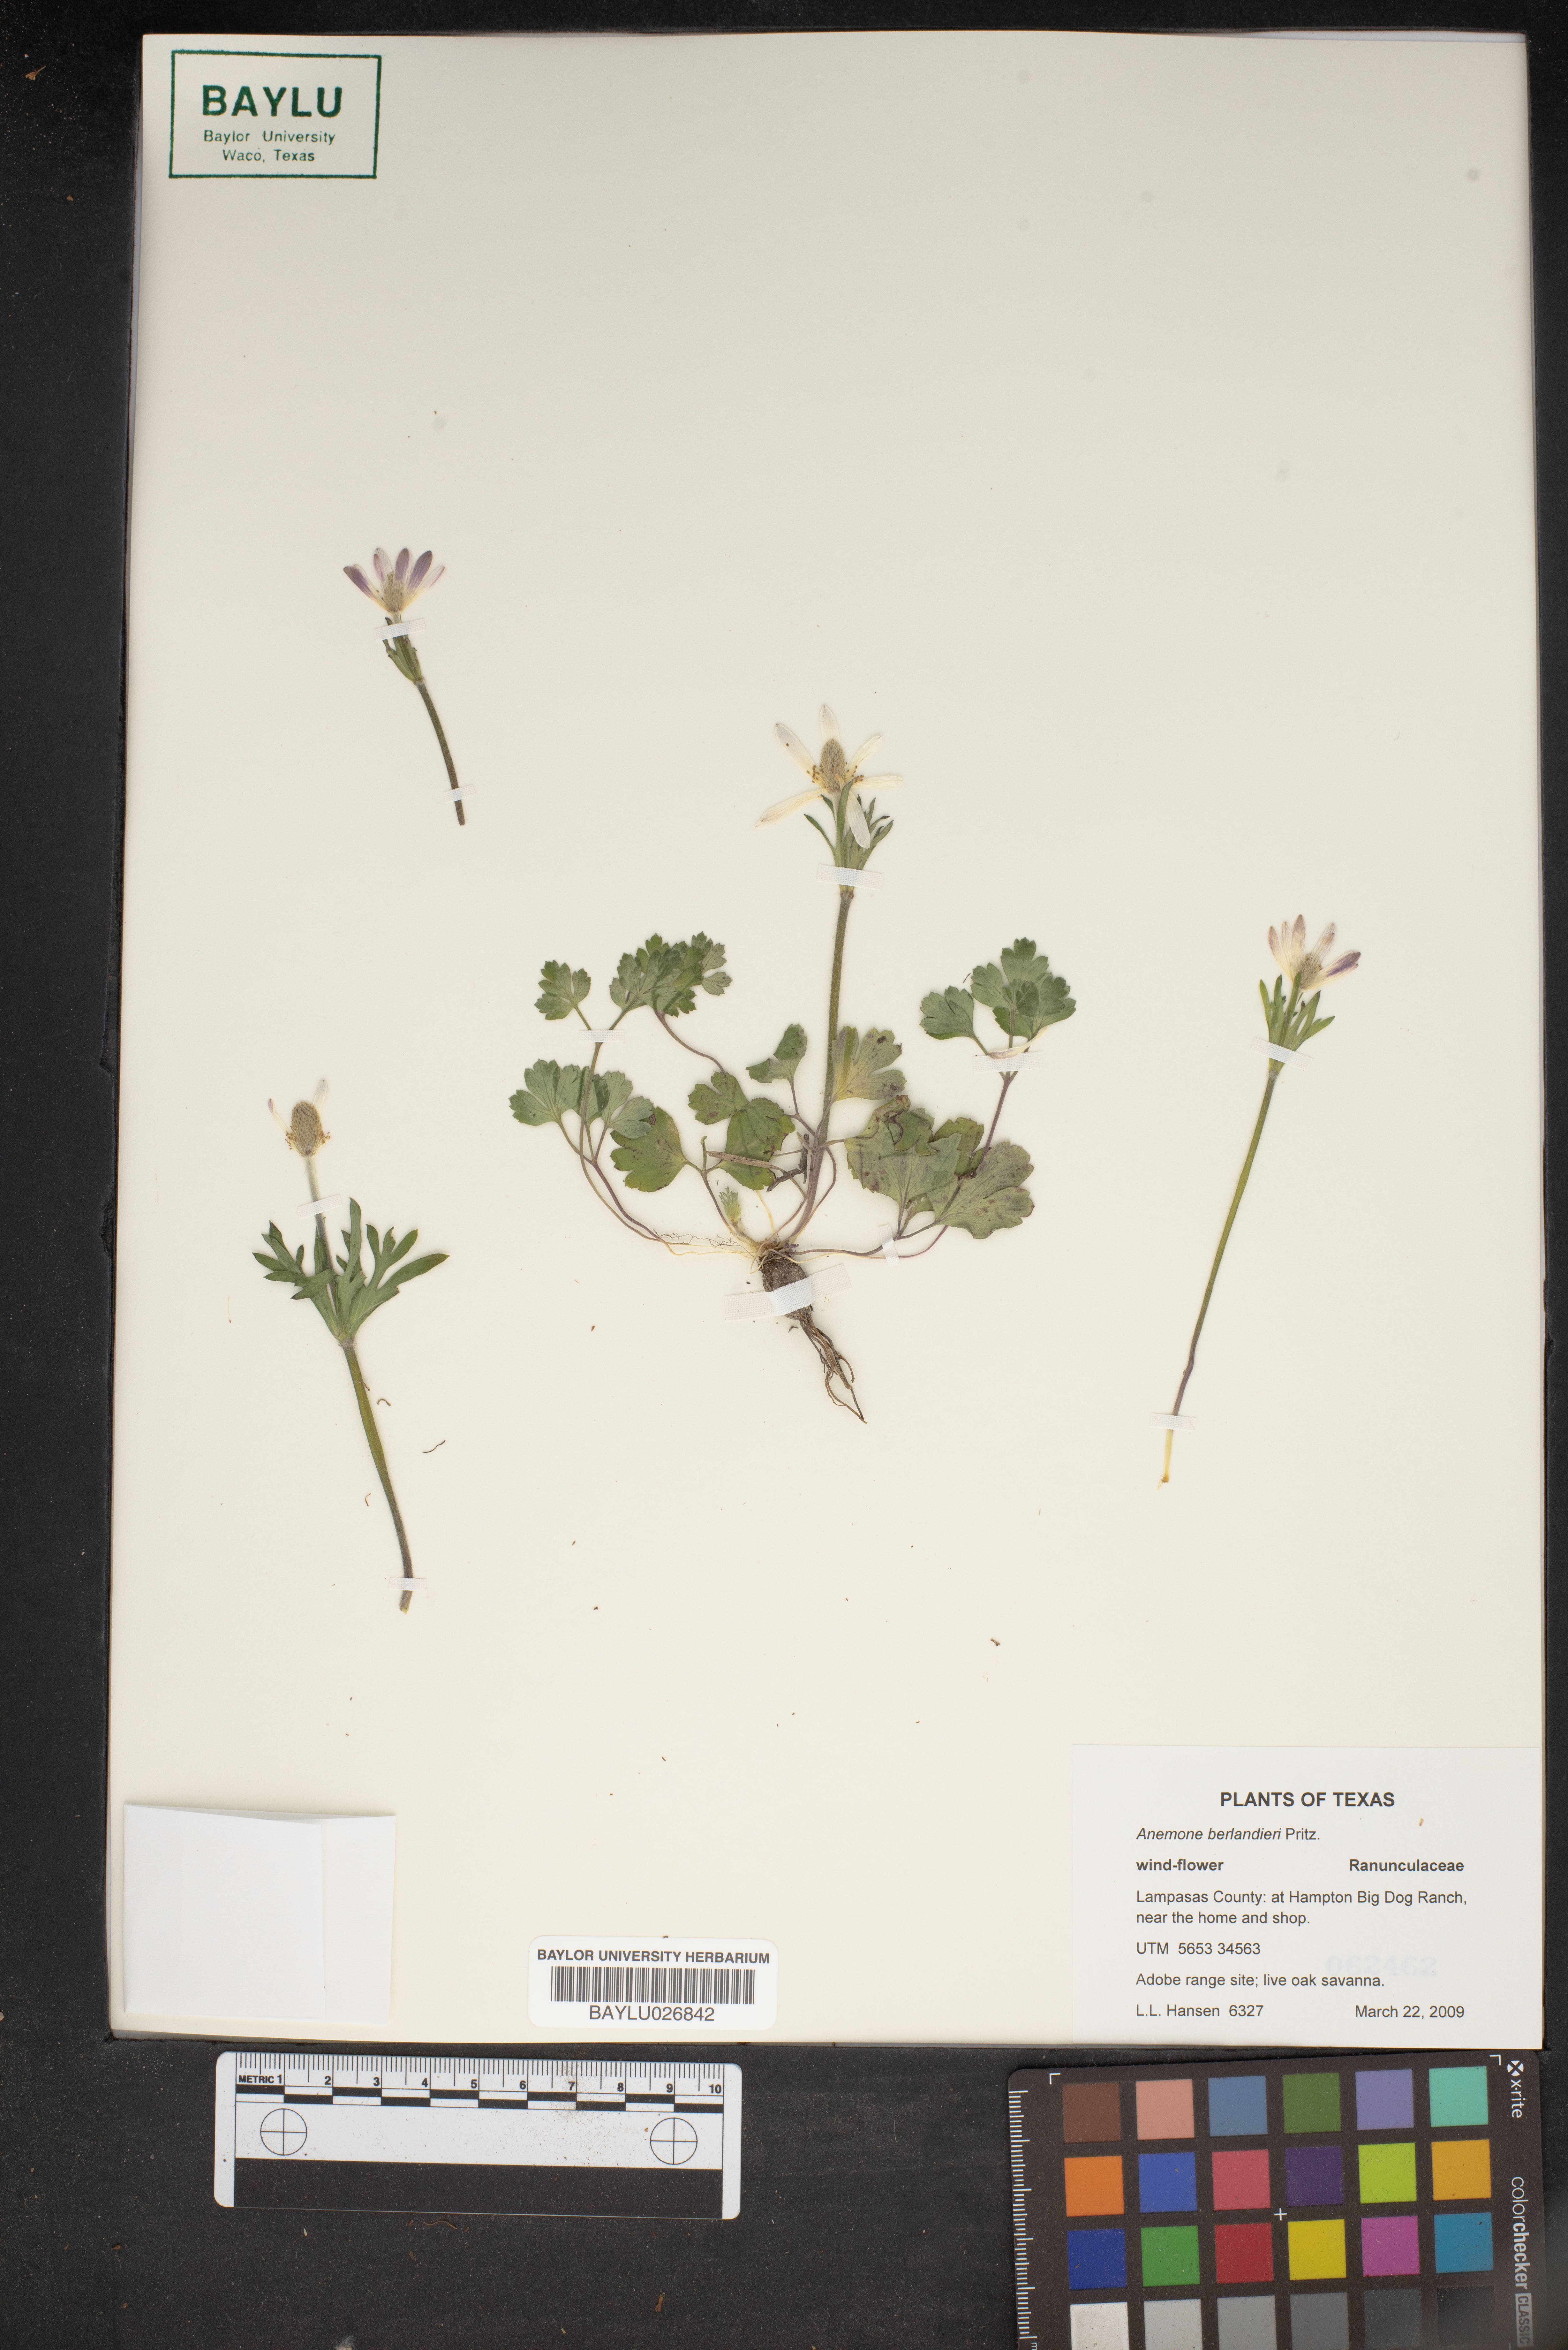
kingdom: Plantae
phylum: Tracheophyta
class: Magnoliopsida
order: Ranunculales
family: Ranunculaceae
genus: Anemone
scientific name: Anemone berlandieri
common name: Ten-petal anemone
